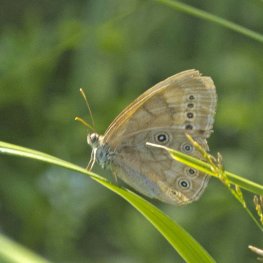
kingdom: Animalia
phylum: Arthropoda
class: Insecta
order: Lepidoptera
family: Nymphalidae
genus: Lethe
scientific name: Lethe eurydice
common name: Eyed Brown
